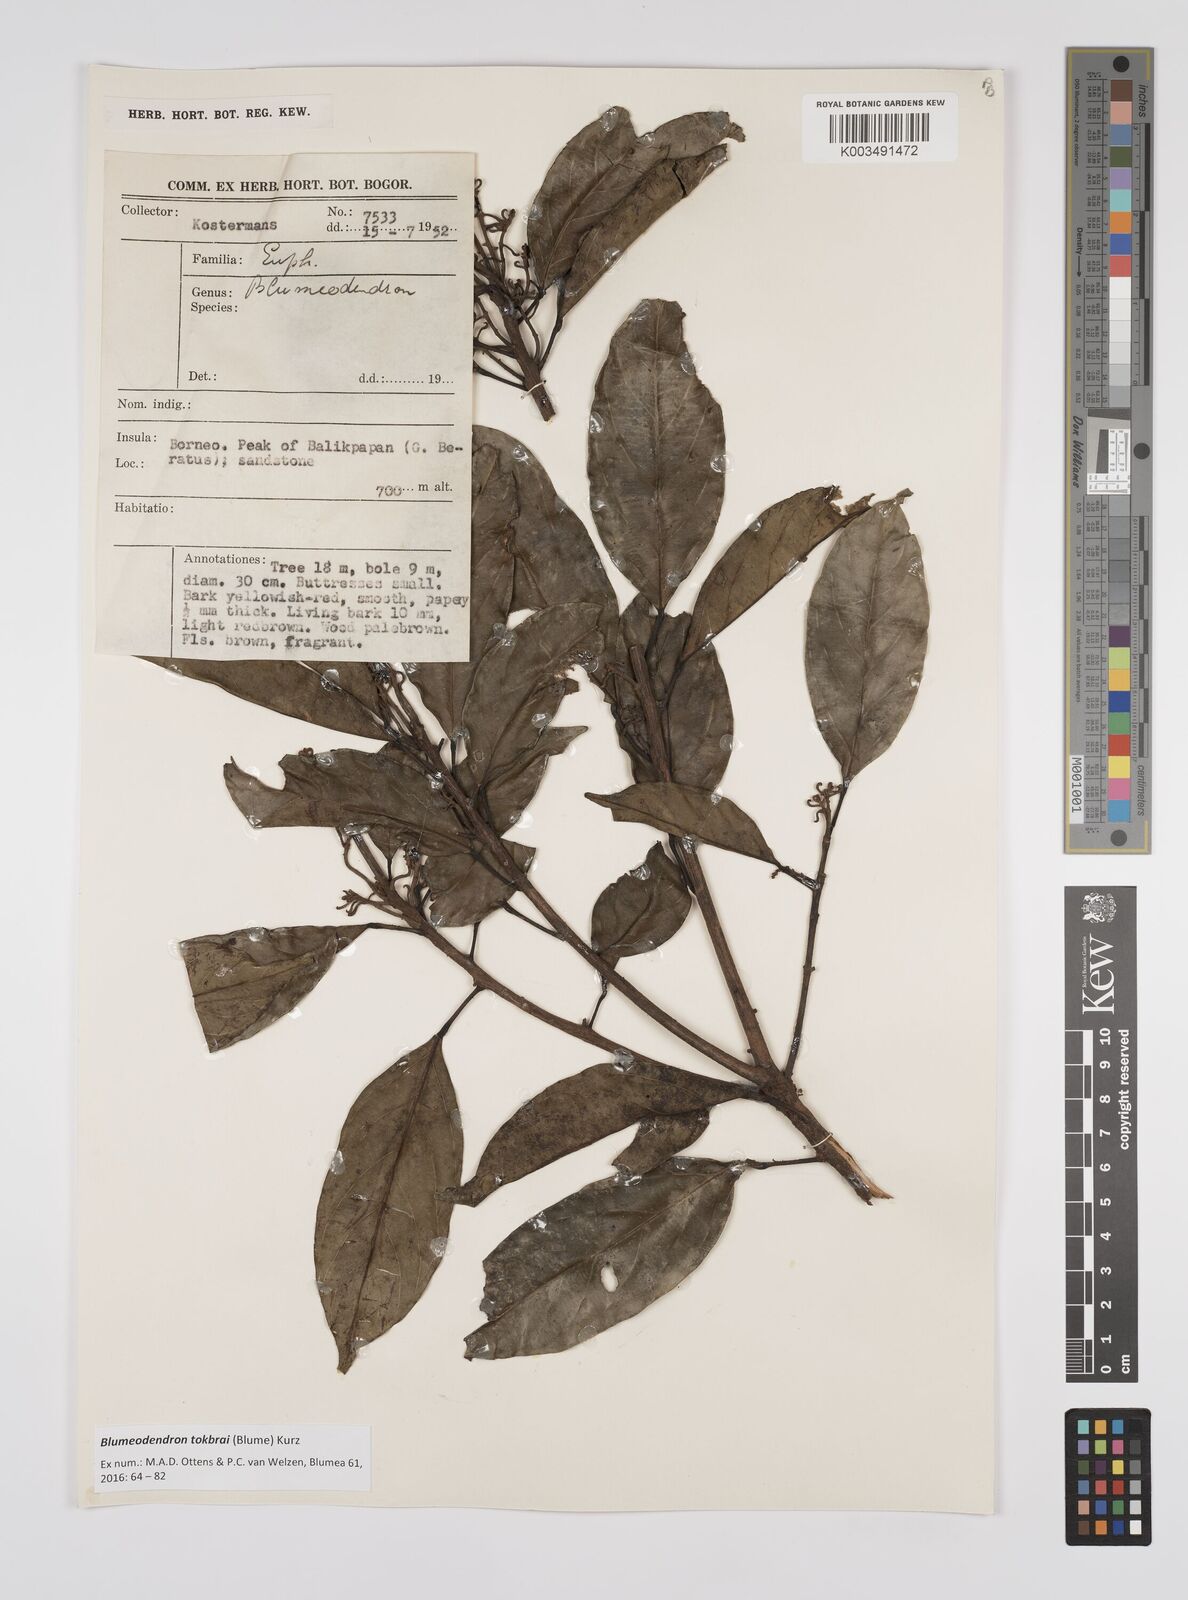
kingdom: Plantae
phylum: Tracheophyta
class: Magnoliopsida
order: Malpighiales
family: Euphorbiaceae
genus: Blumeodendron
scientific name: Blumeodendron tokbrai
